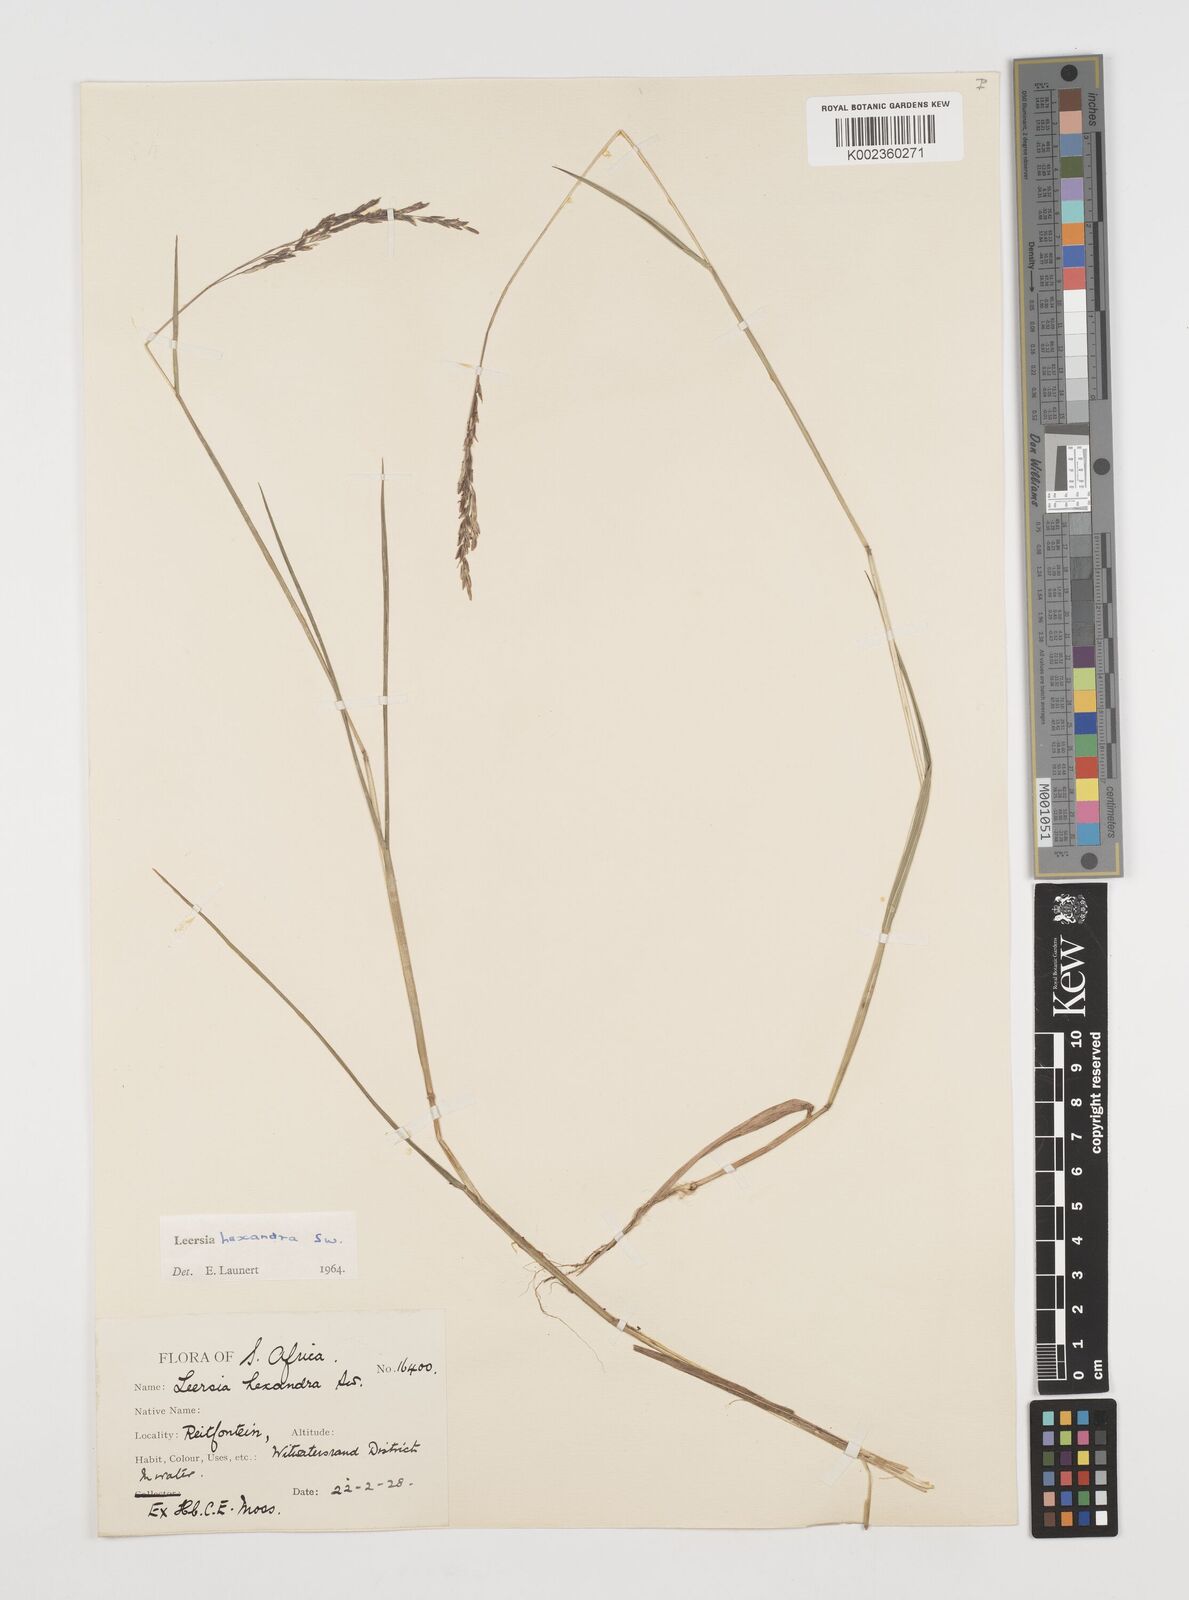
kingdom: Plantae
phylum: Tracheophyta
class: Liliopsida
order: Poales
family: Poaceae
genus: Leersia
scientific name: Leersia hexandra
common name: Southern cut grass
